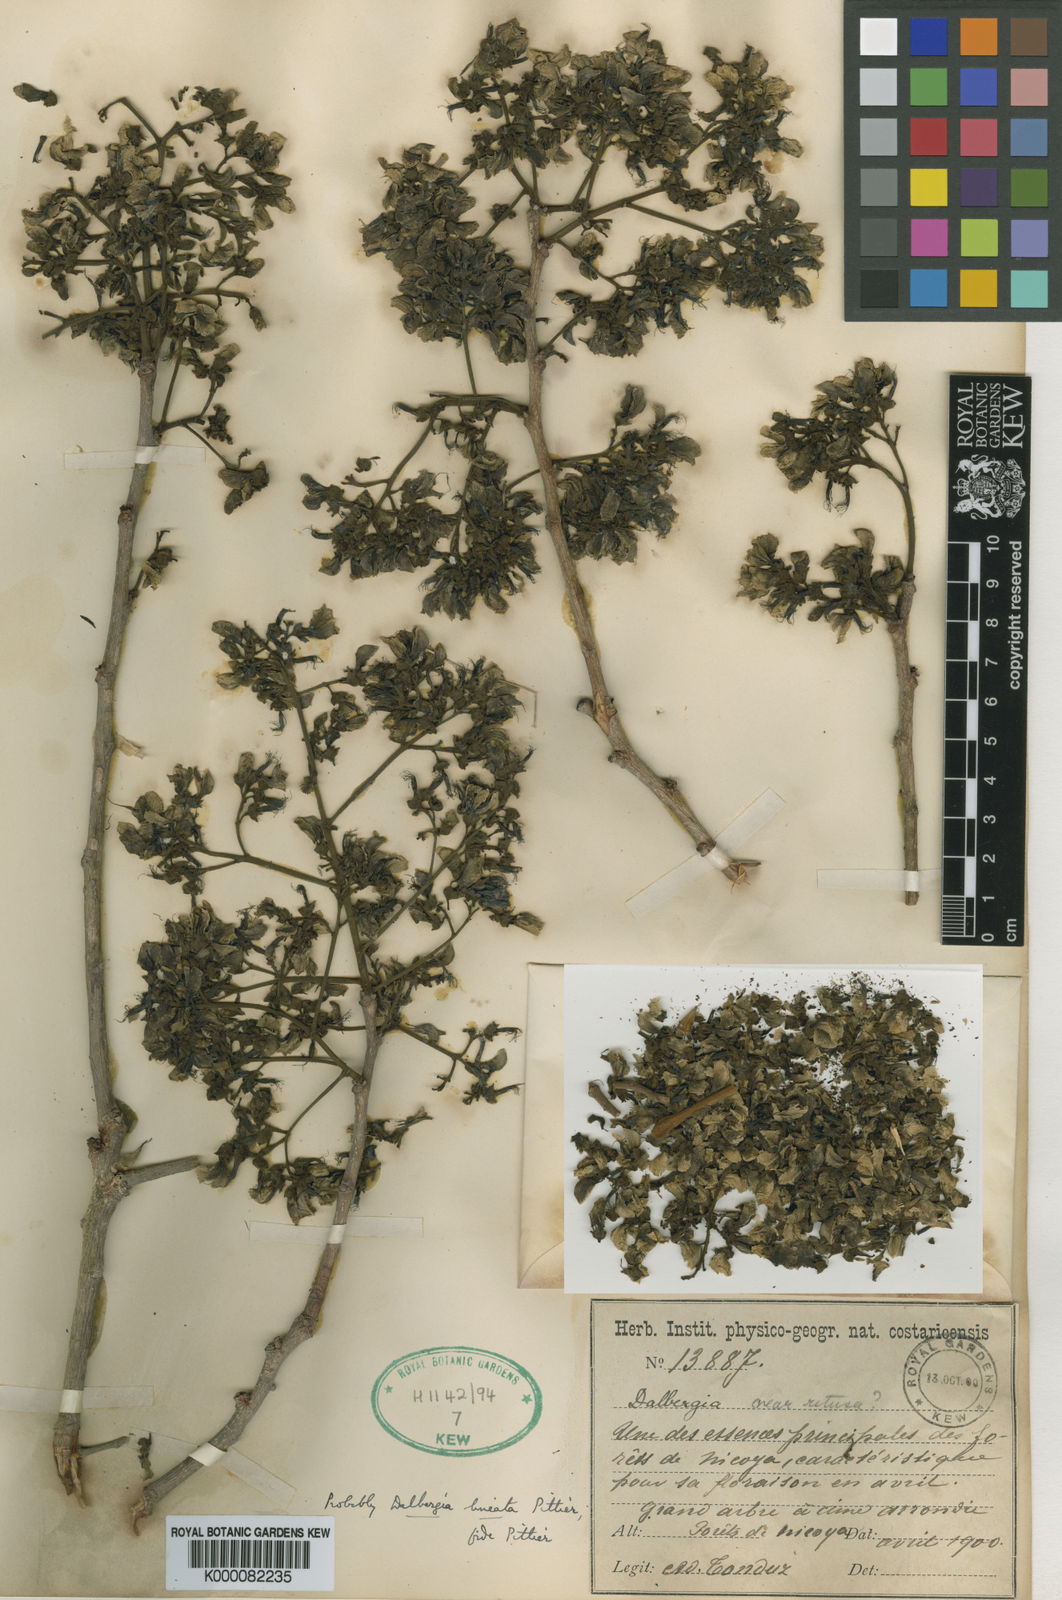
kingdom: Plantae
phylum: Tracheophyta
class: Magnoliopsida
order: Fabales
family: Fabaceae
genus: Dalbergia
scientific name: Dalbergia retusa
